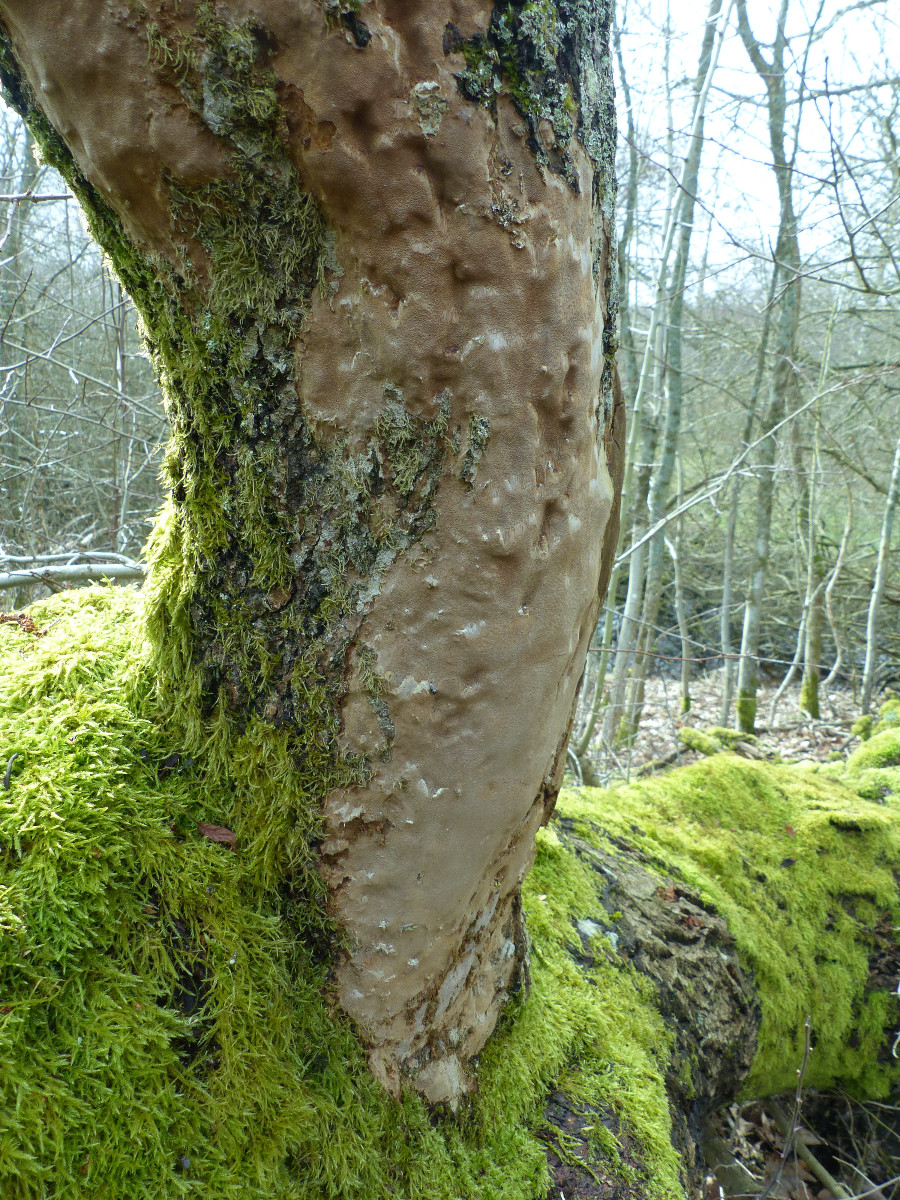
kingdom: Fungi
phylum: Basidiomycota
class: Agaricomycetes
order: Hymenochaetales
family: Hymenochaetaceae
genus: Fomitiporia
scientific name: Fomitiporia punctata
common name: pude-ildporesvamp
